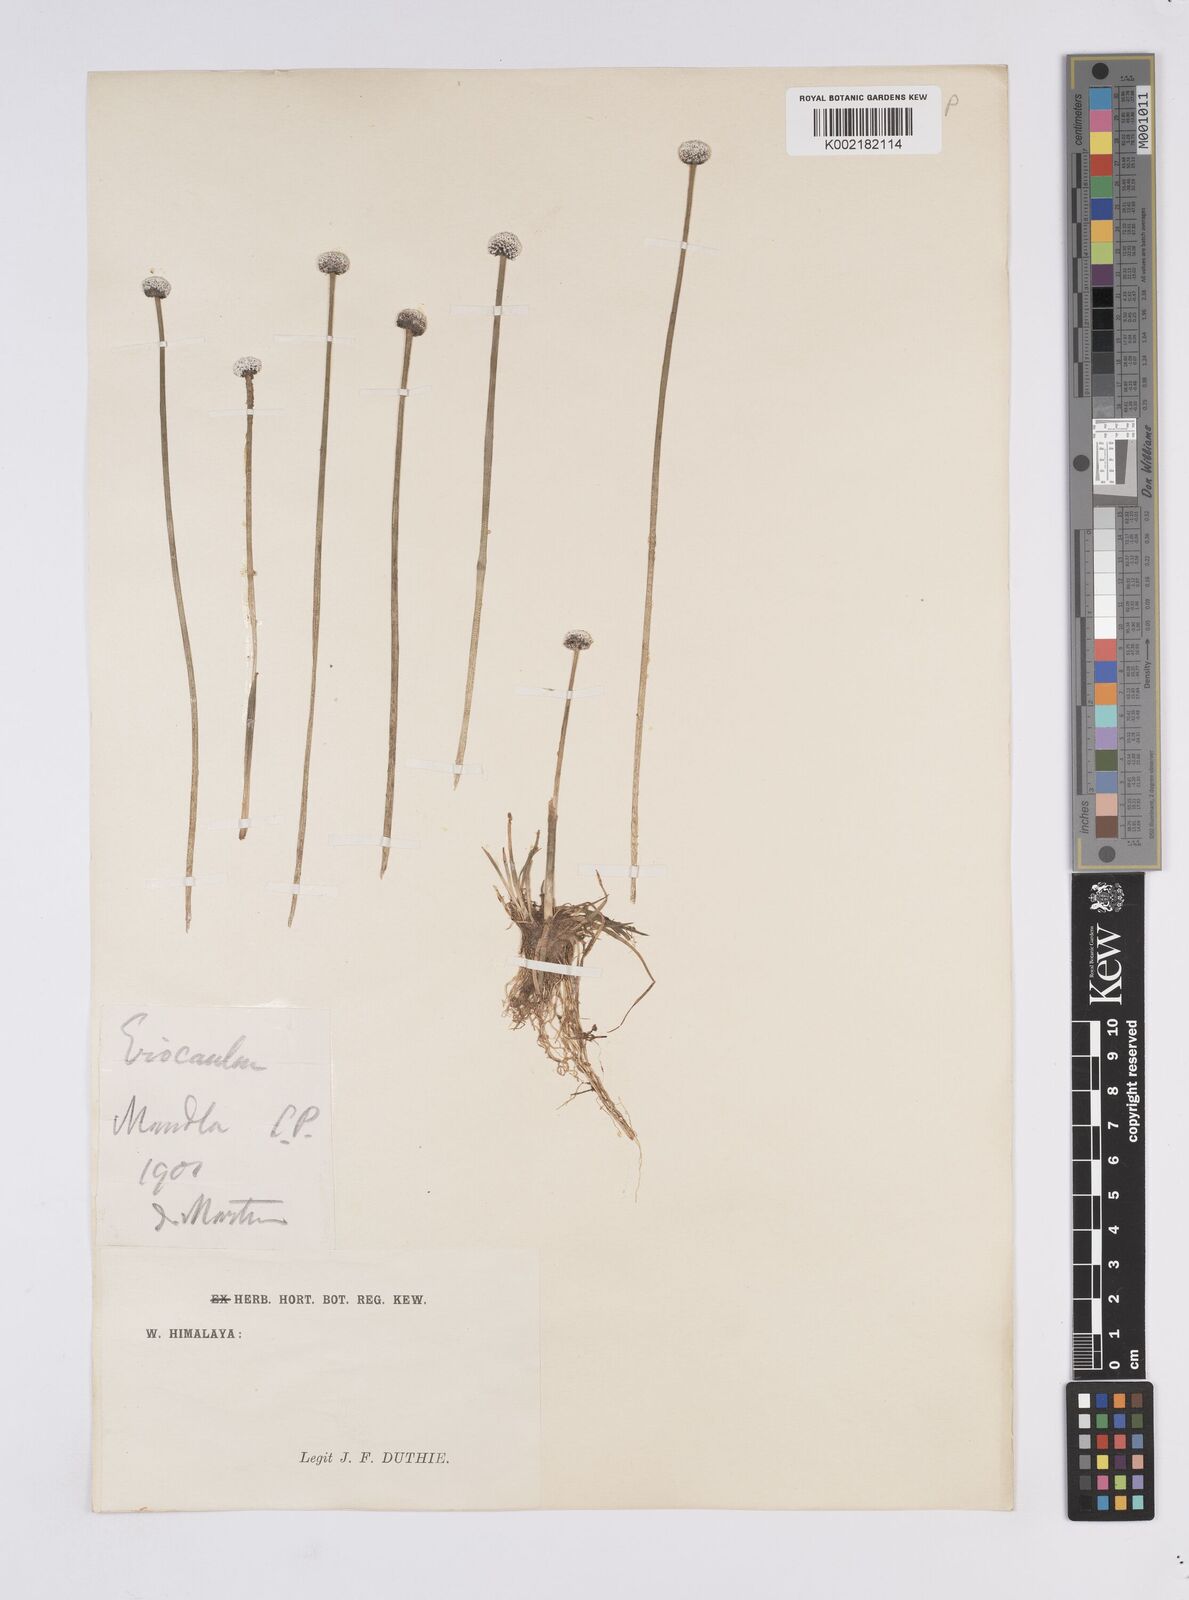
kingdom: Plantae
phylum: Tracheophyta
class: Liliopsida
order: Poales
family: Eriocaulaceae
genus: Eriocaulon
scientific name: Eriocaulon
